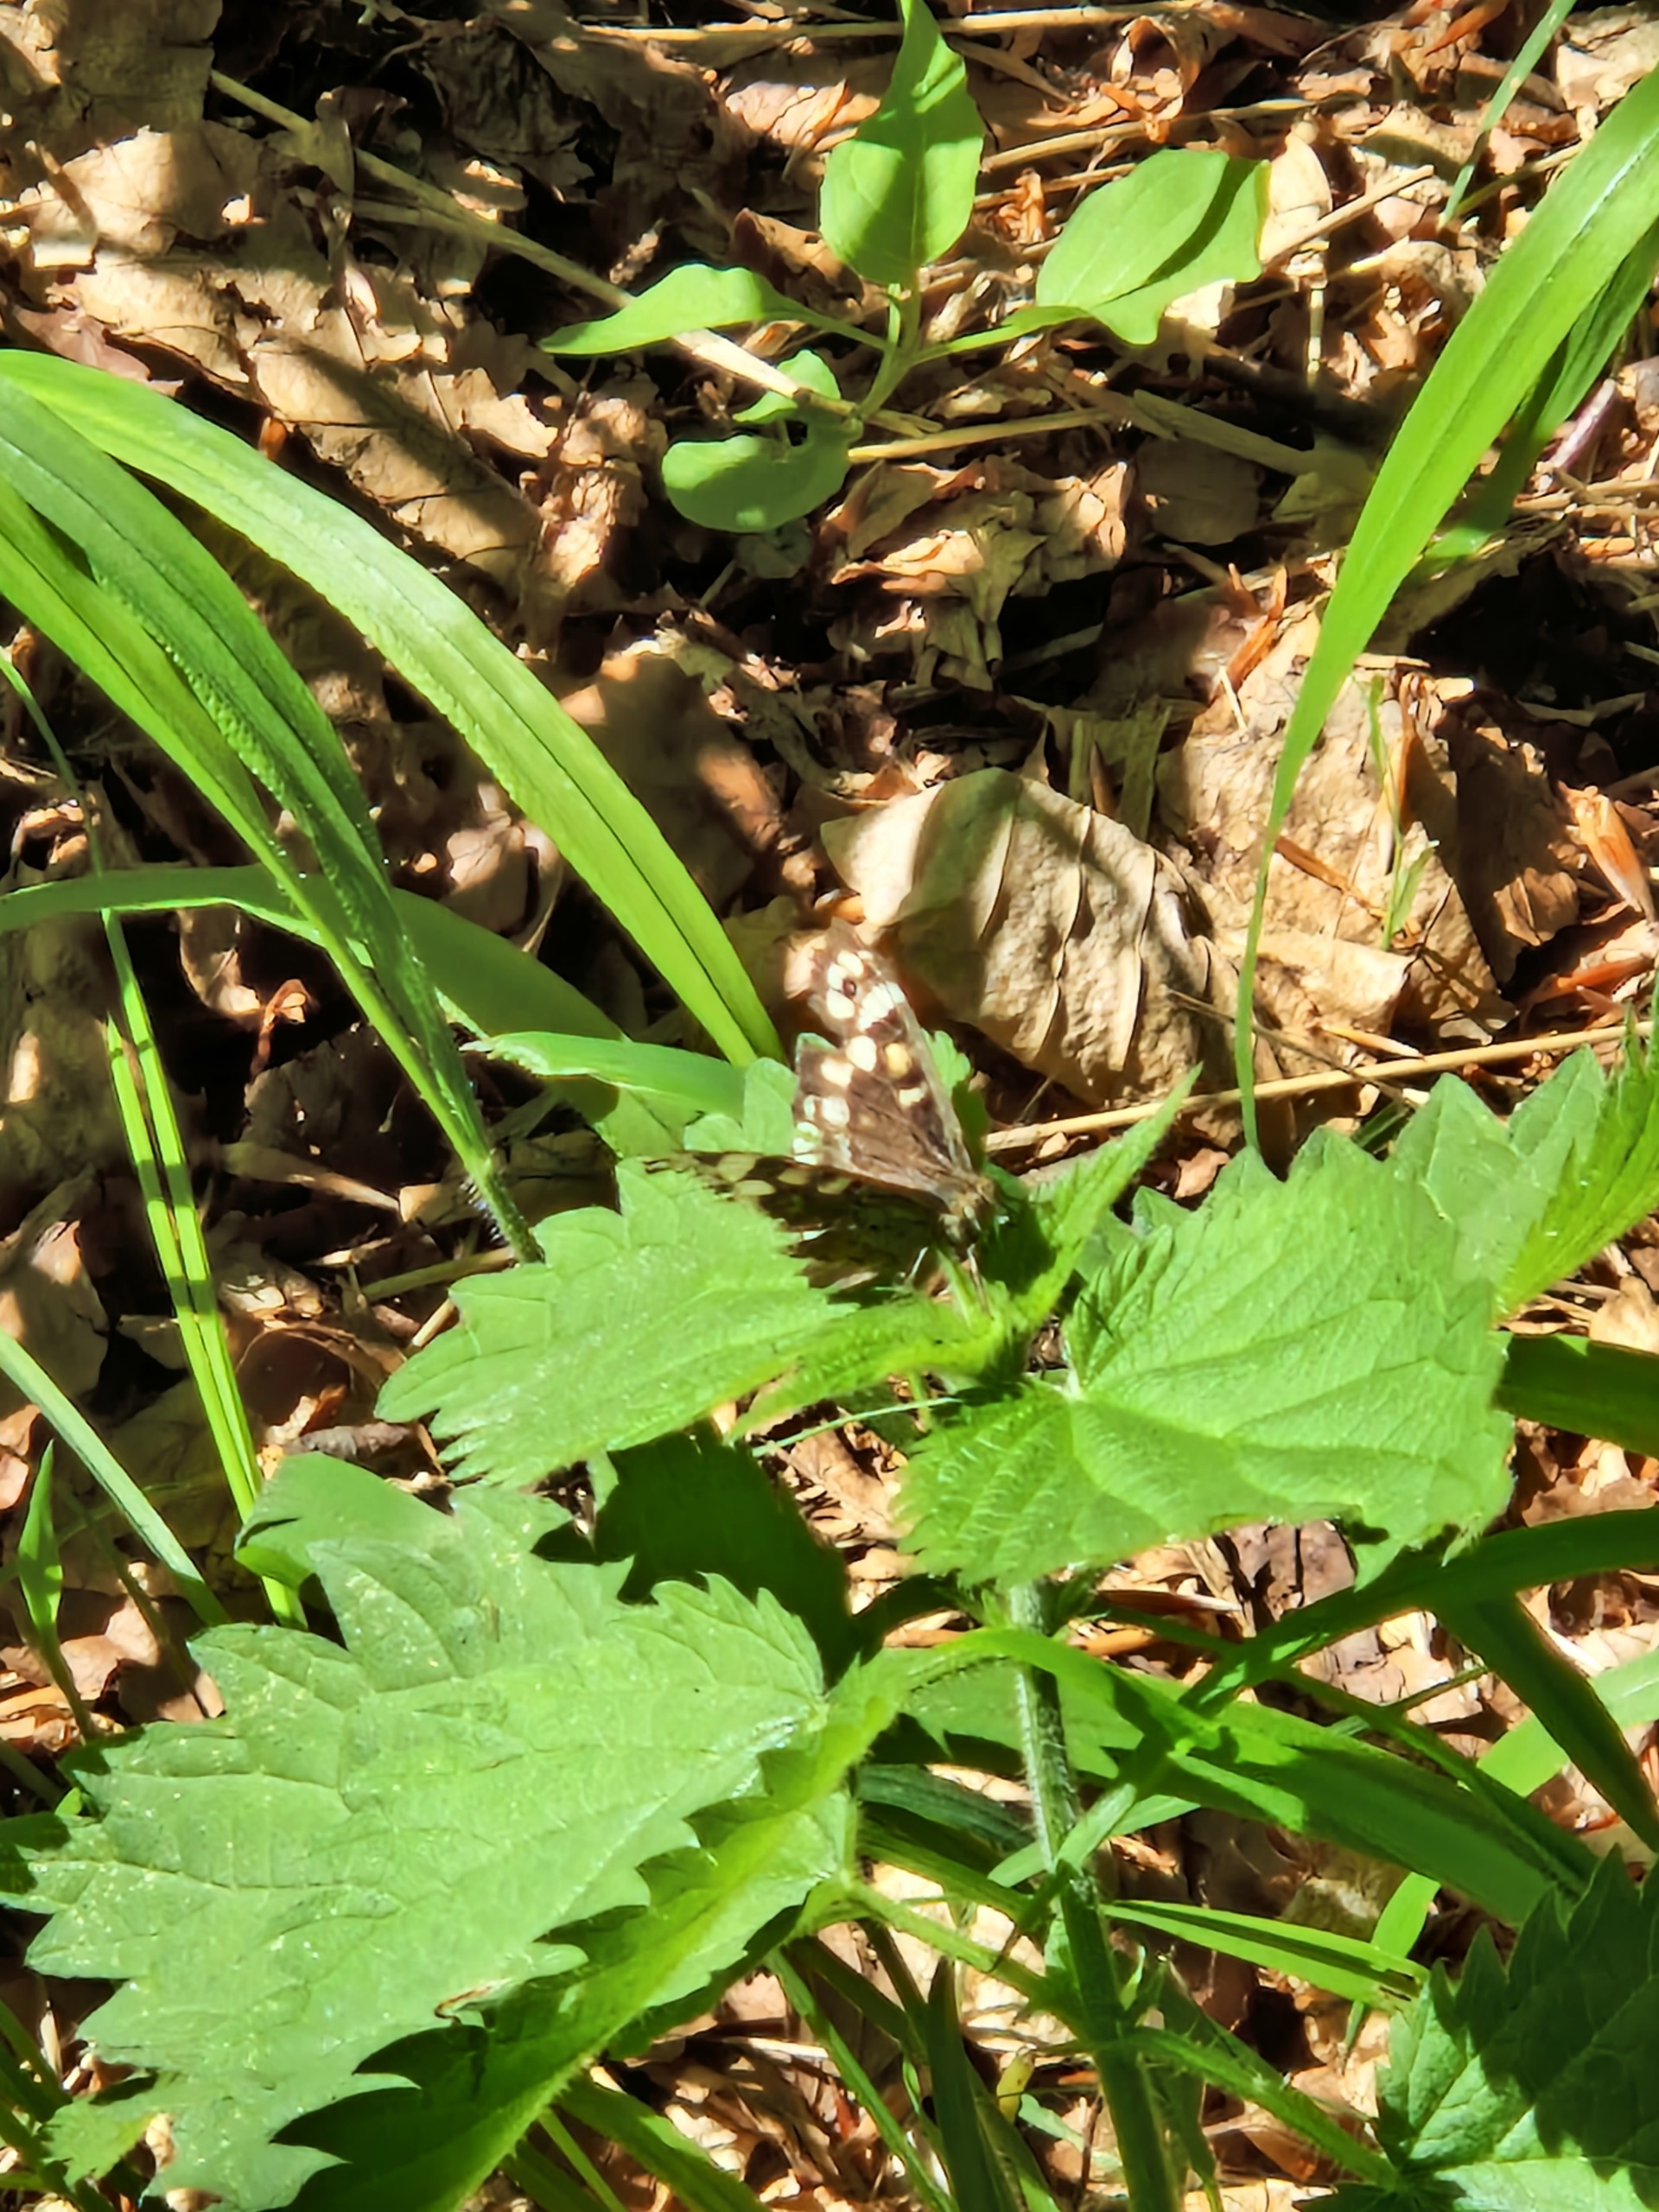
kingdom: Animalia
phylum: Arthropoda
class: Insecta
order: Lepidoptera
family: Nymphalidae
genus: Pararge
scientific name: Pararge aegeria
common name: Skovrandøje
